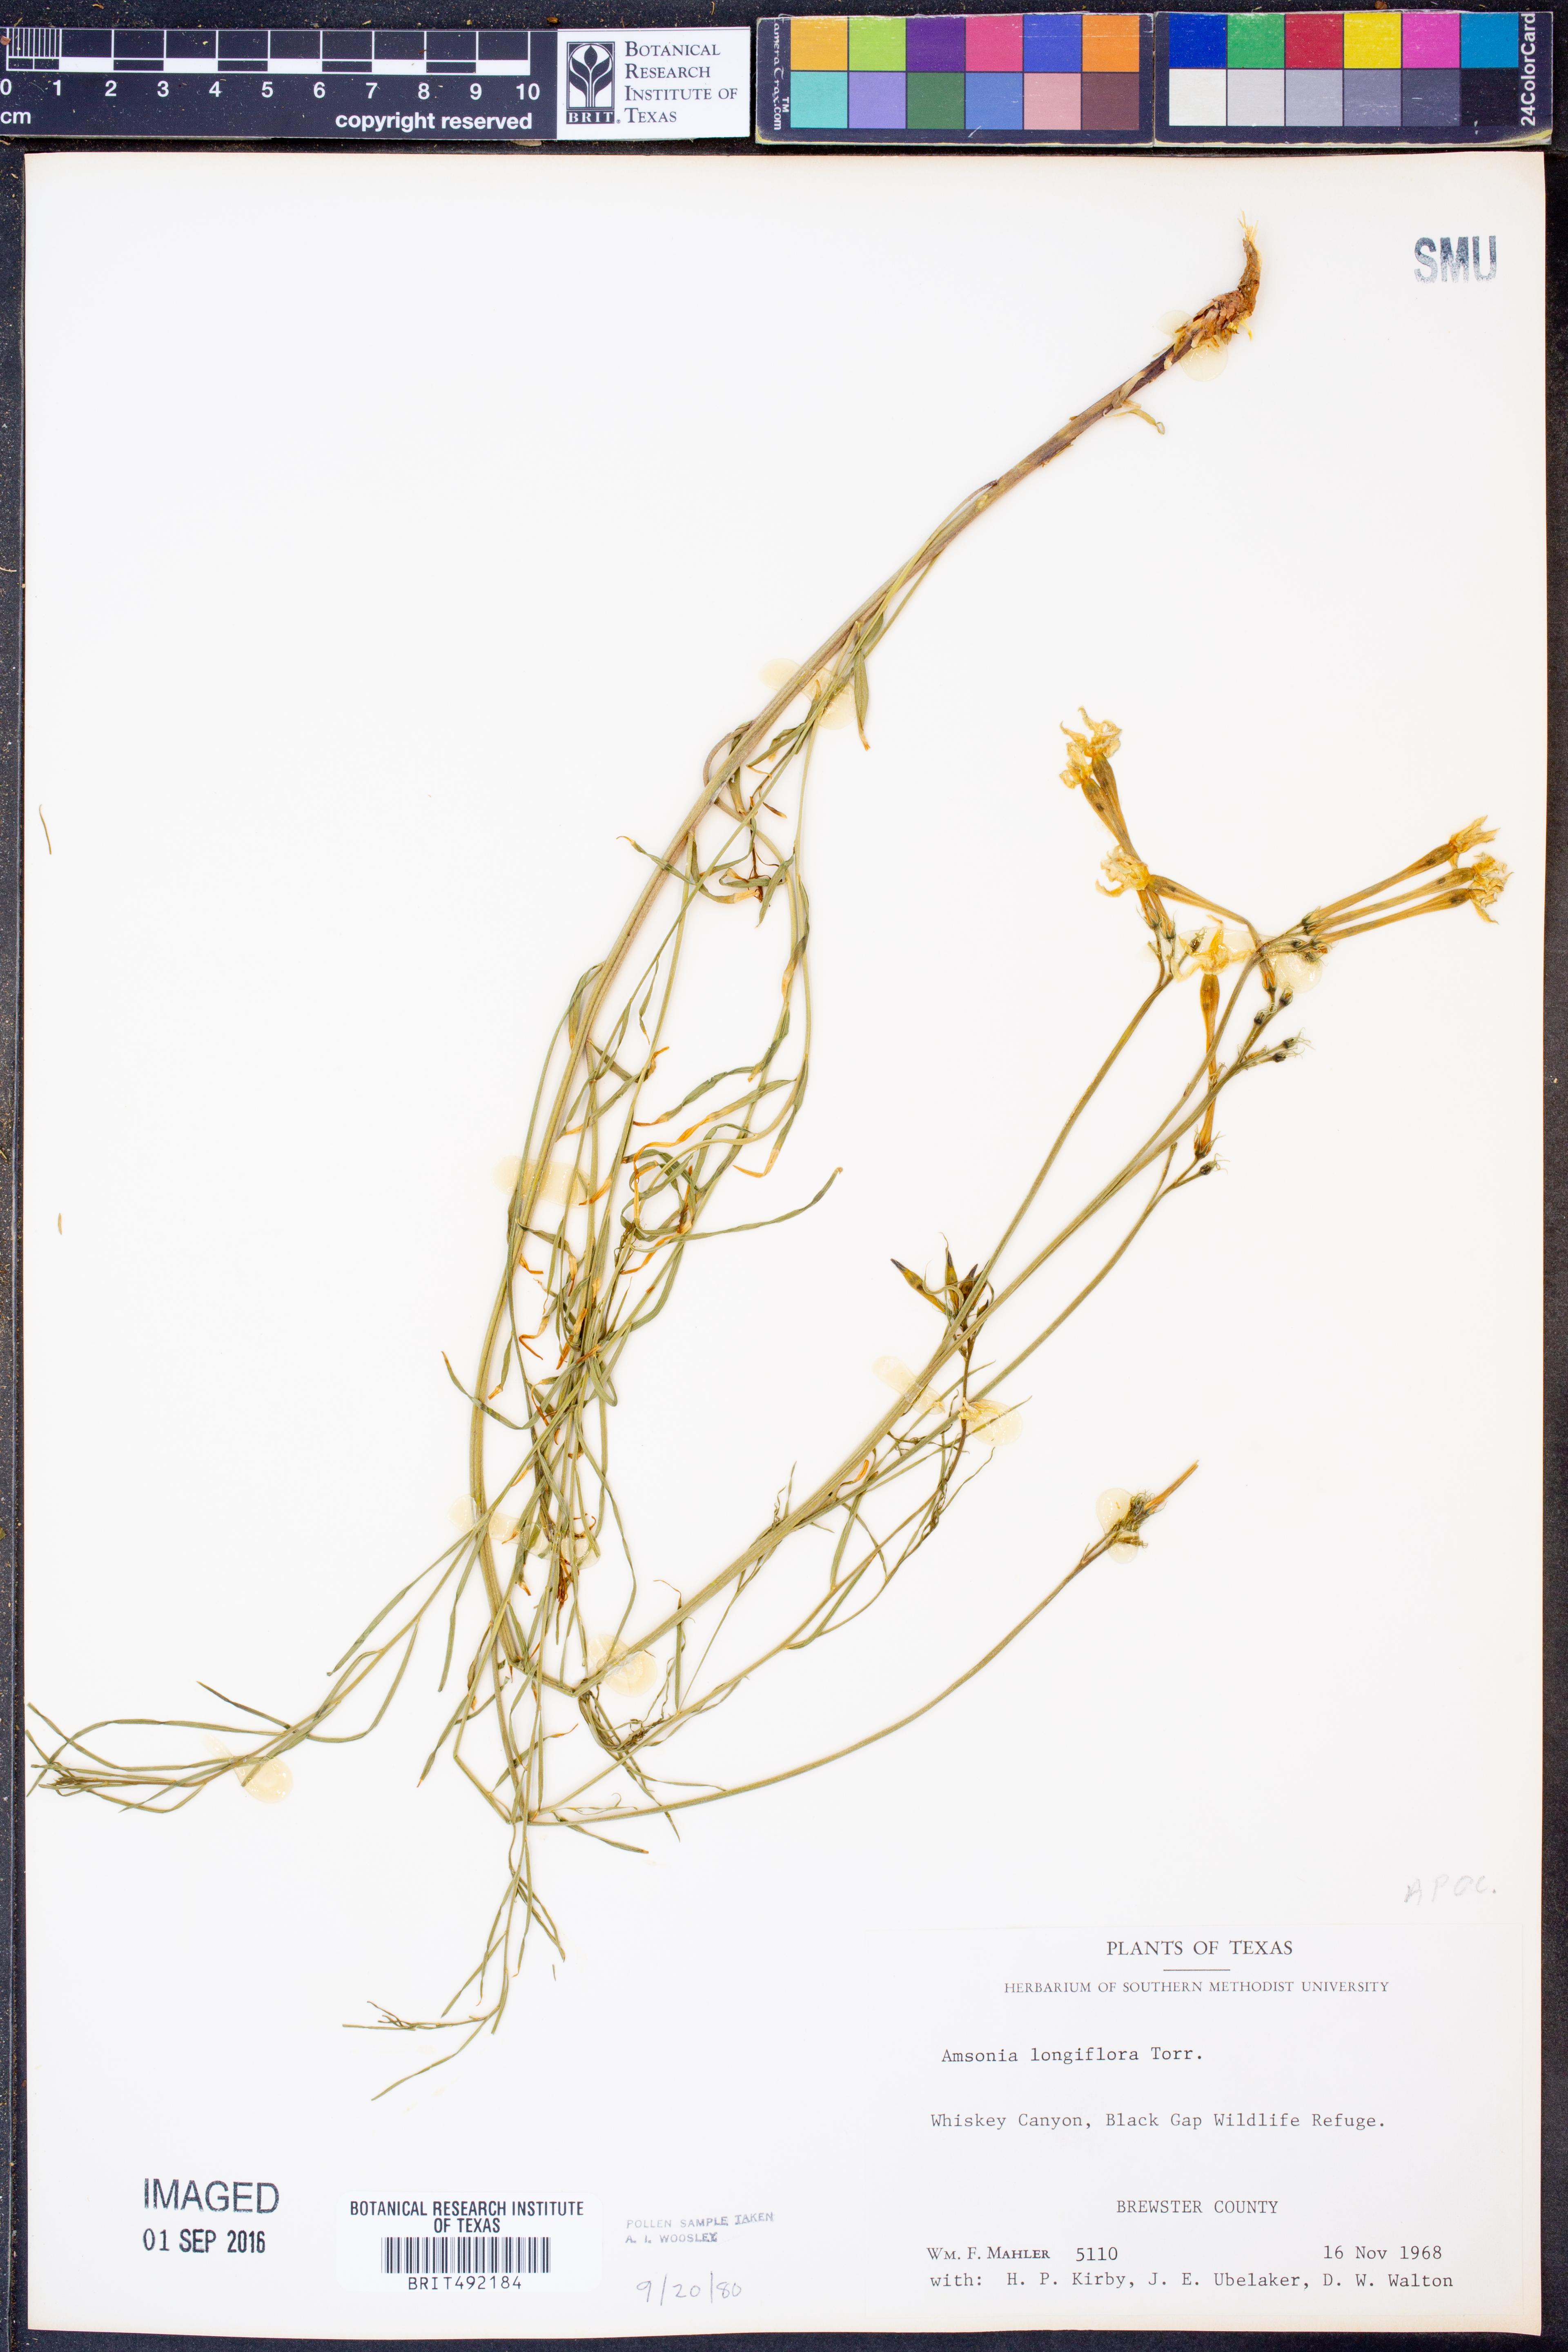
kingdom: Plantae
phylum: Tracheophyta
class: Magnoliopsida
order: Gentianales
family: Apocynaceae
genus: Amsonia
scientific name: Amsonia longiflora
